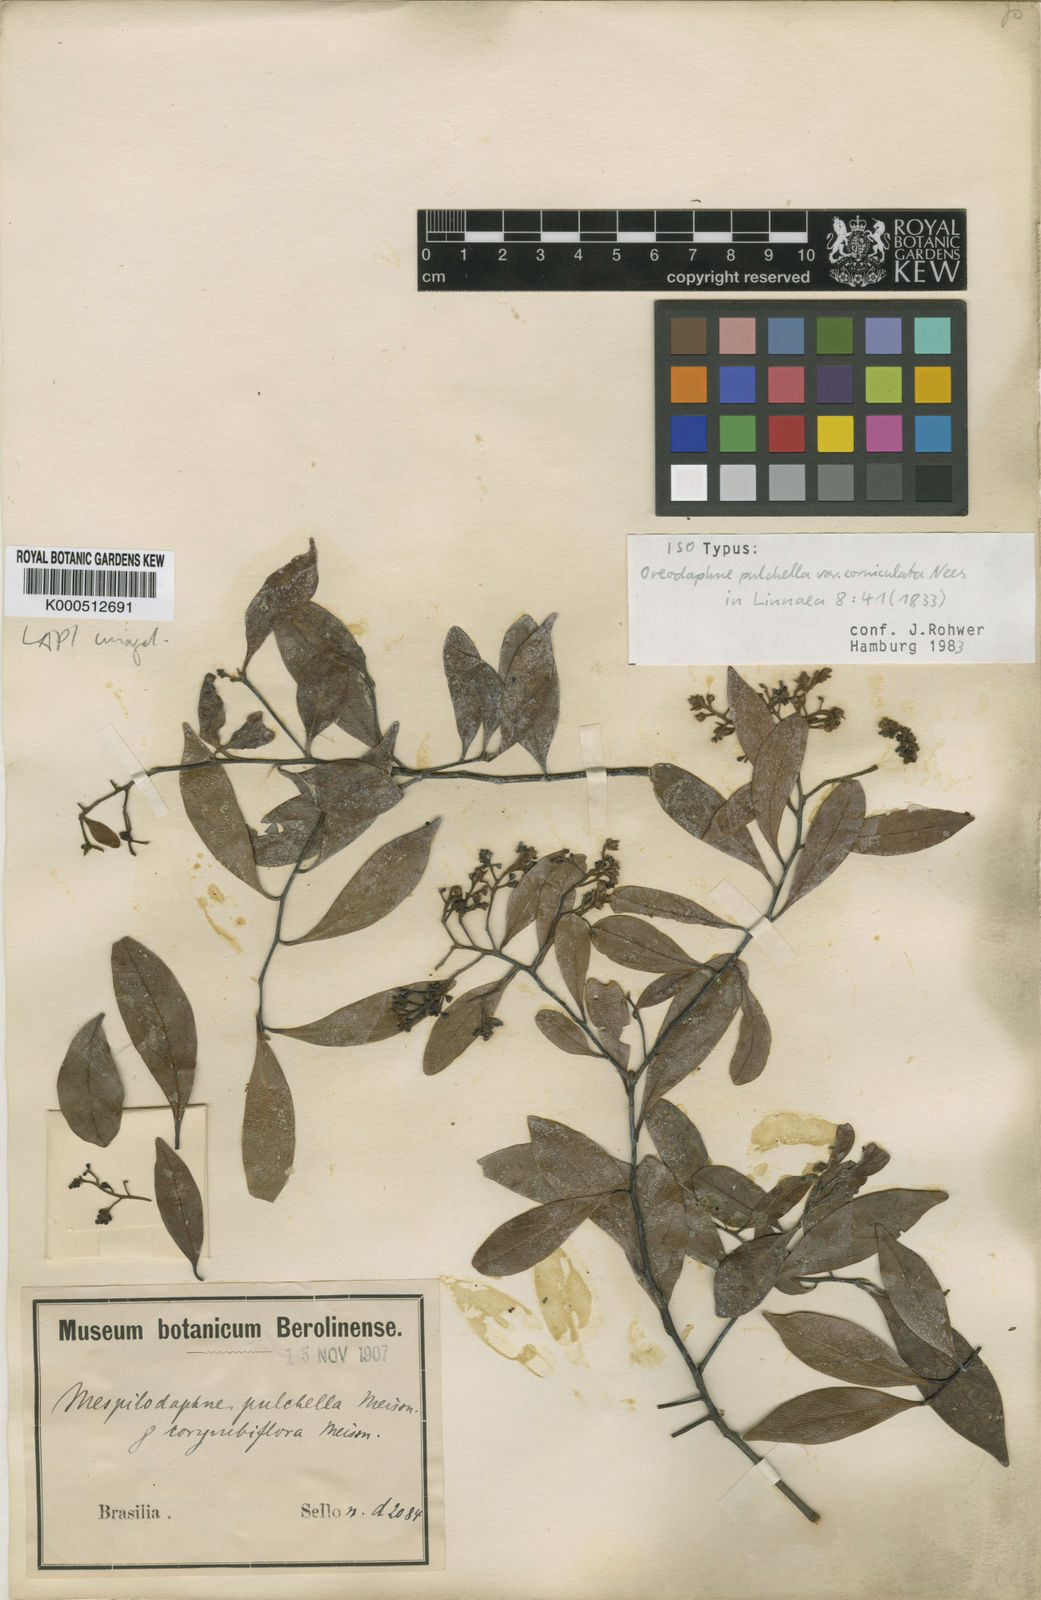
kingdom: Plantae
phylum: Tracheophyta
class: Magnoliopsida
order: Laurales
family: Lauraceae
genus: Mespilodaphne
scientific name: Mespilodaphne pulchella
